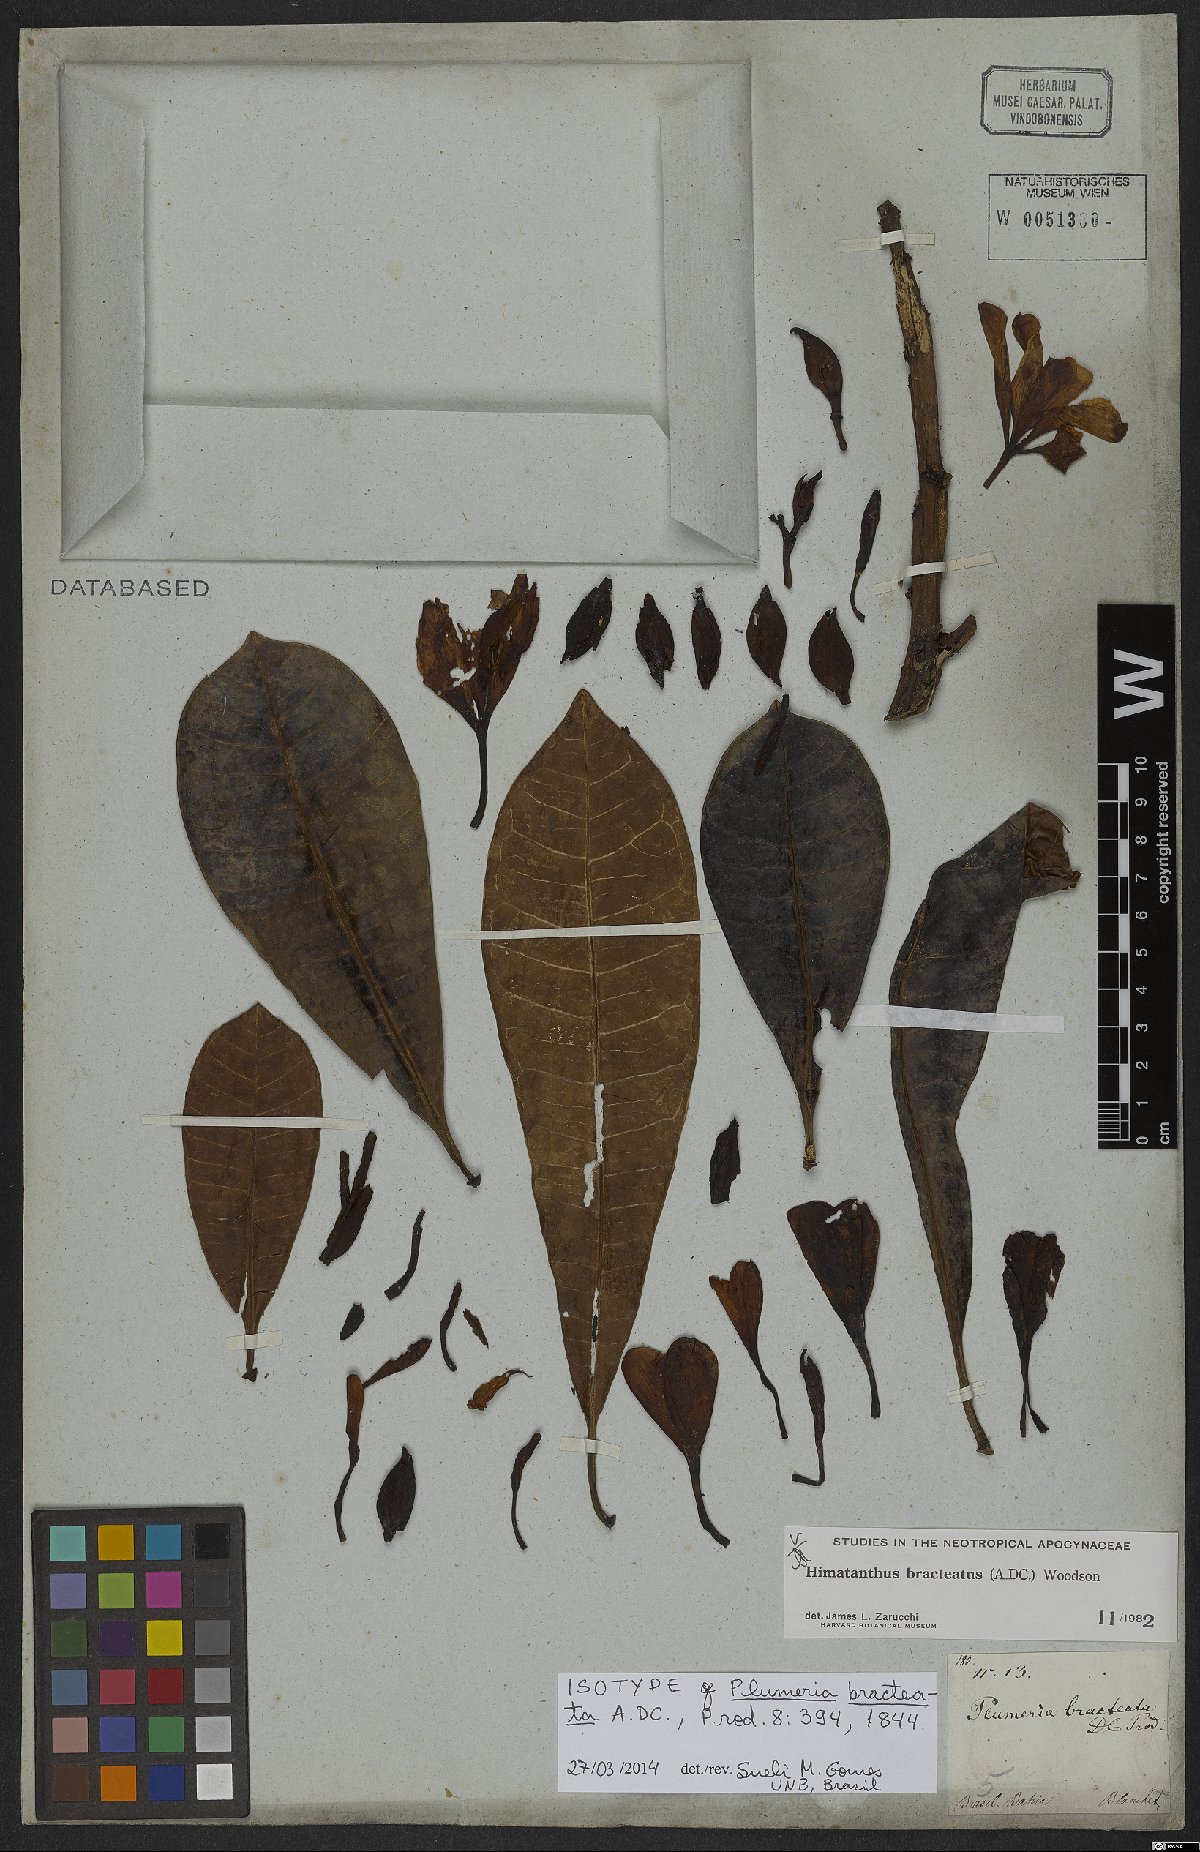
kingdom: Plantae
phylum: Tracheophyta
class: Magnoliopsida
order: Gentianales
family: Apocynaceae
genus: Himatanthus
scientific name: Himatanthus bracteatus
